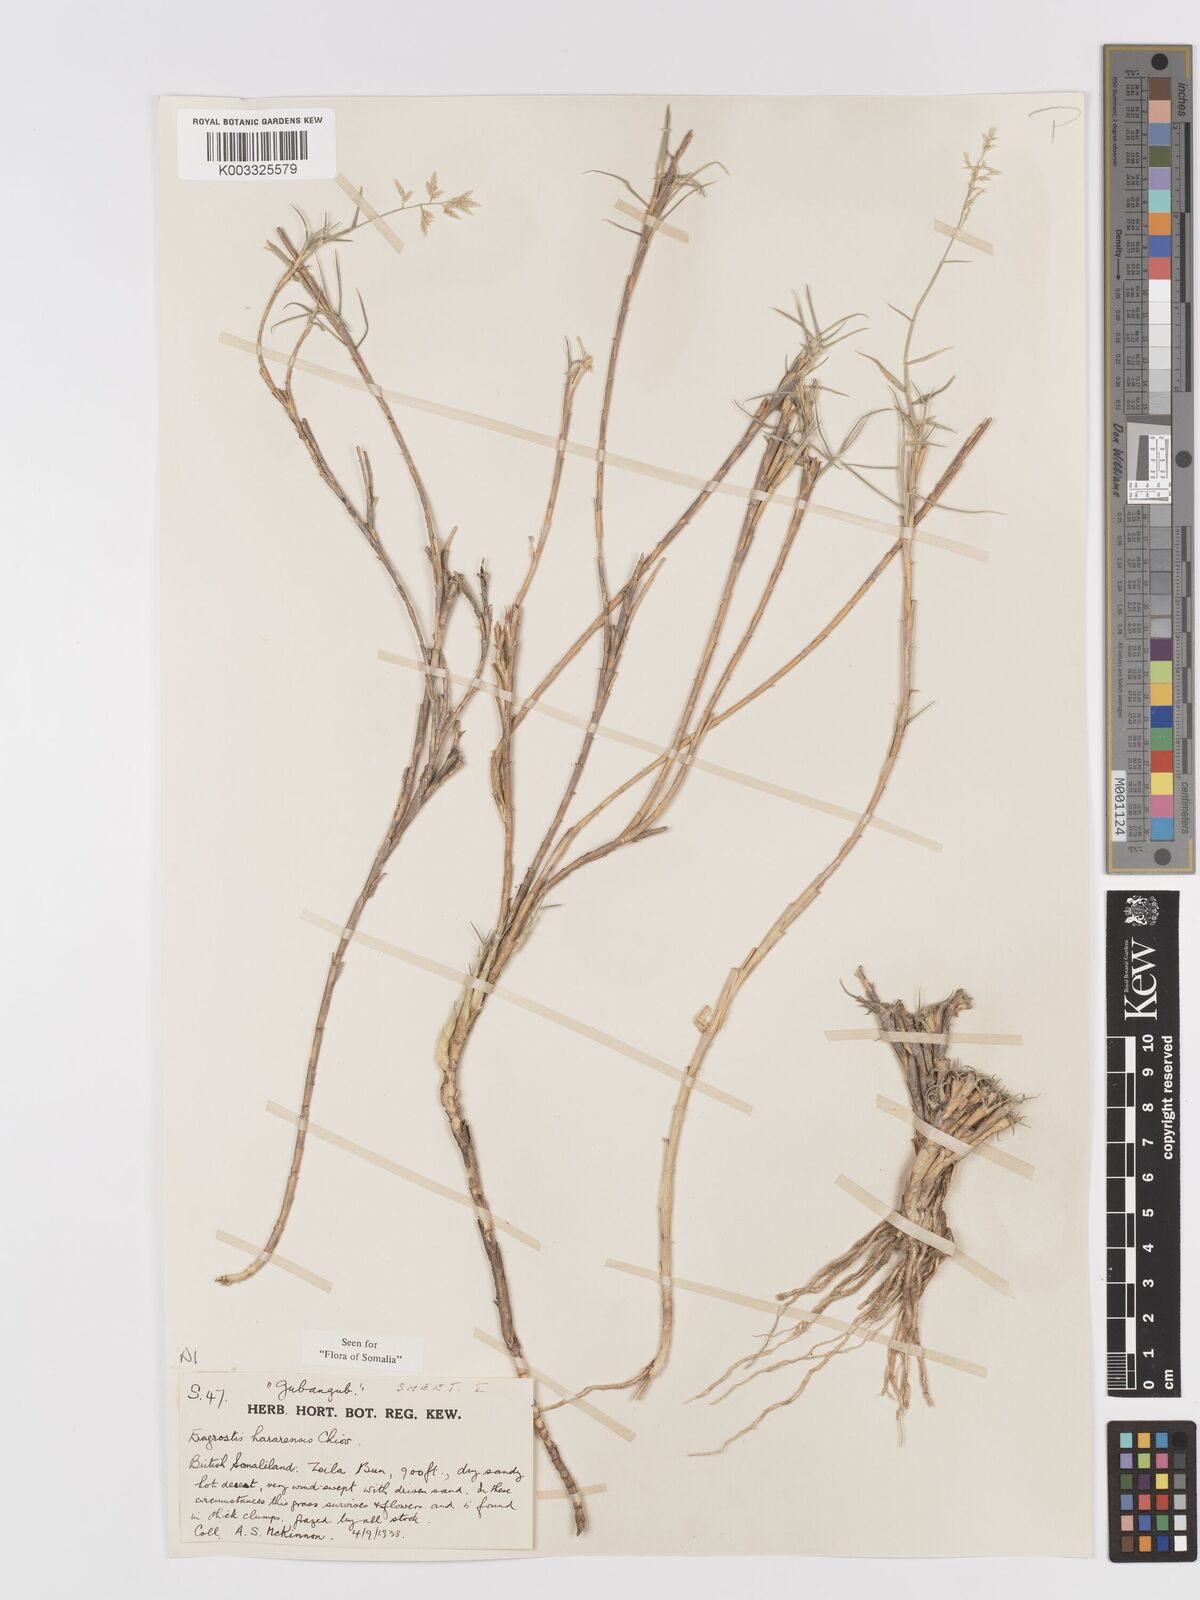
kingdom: Plantae
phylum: Tracheophyta
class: Liliopsida
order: Poales
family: Poaceae
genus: Eragrostis
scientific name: Eragrostis mahrana
